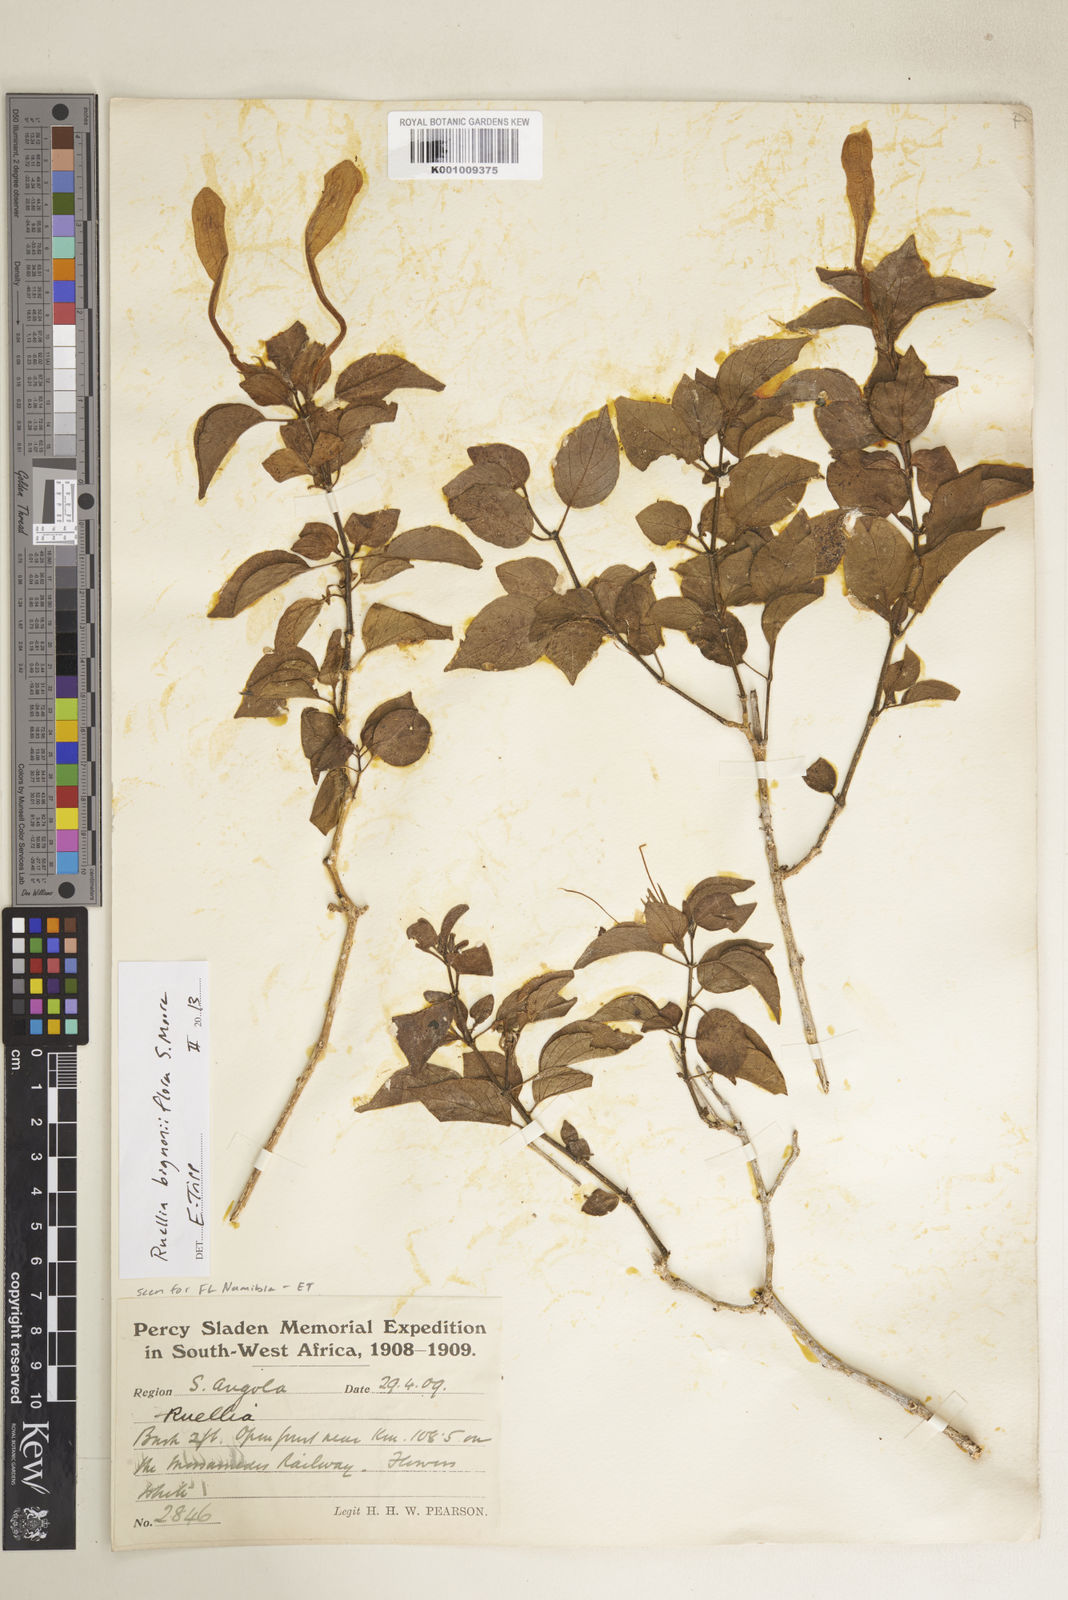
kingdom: Plantae
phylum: Tracheophyta
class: Magnoliopsida
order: Lamiales
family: Acanthaceae
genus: Ruellia
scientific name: Ruellia bignoniiflora
